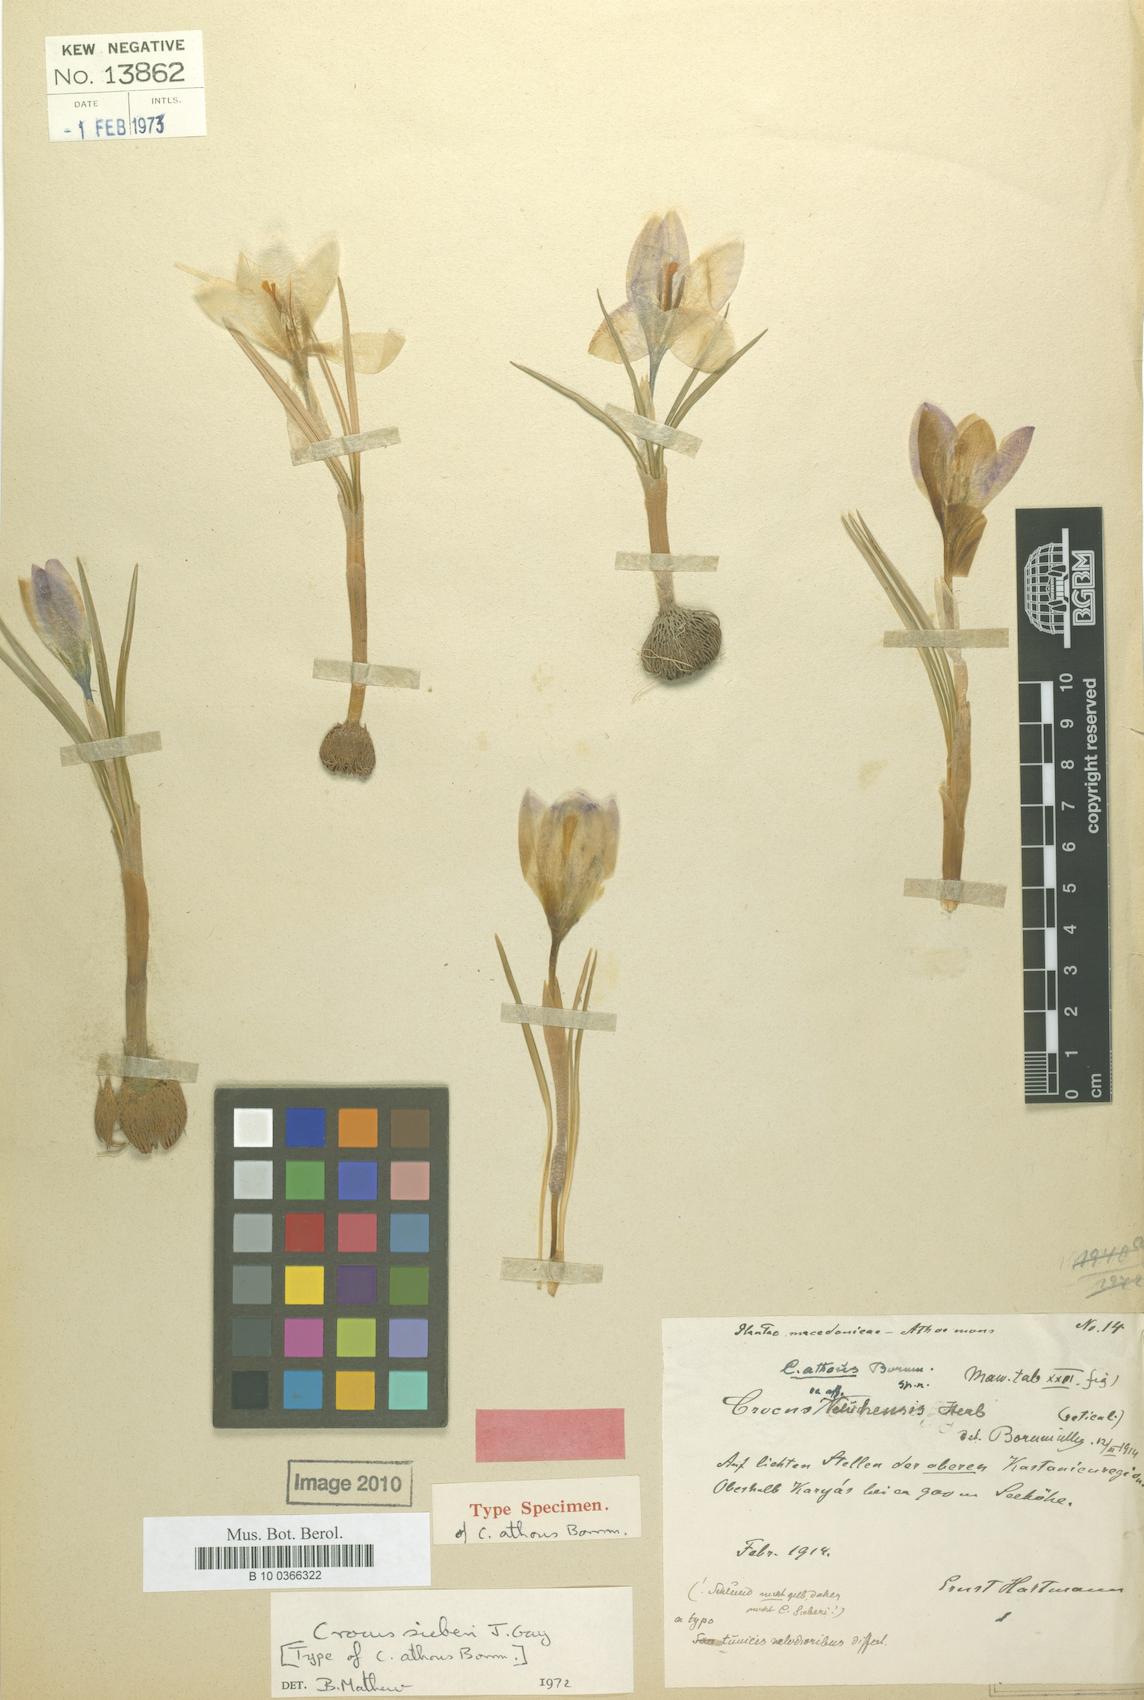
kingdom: Plantae
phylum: Tracheophyta
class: Liliopsida
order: Asparagales
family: Iridaceae
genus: Crocus
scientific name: Crocus sieberi
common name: Sieber's crocus
